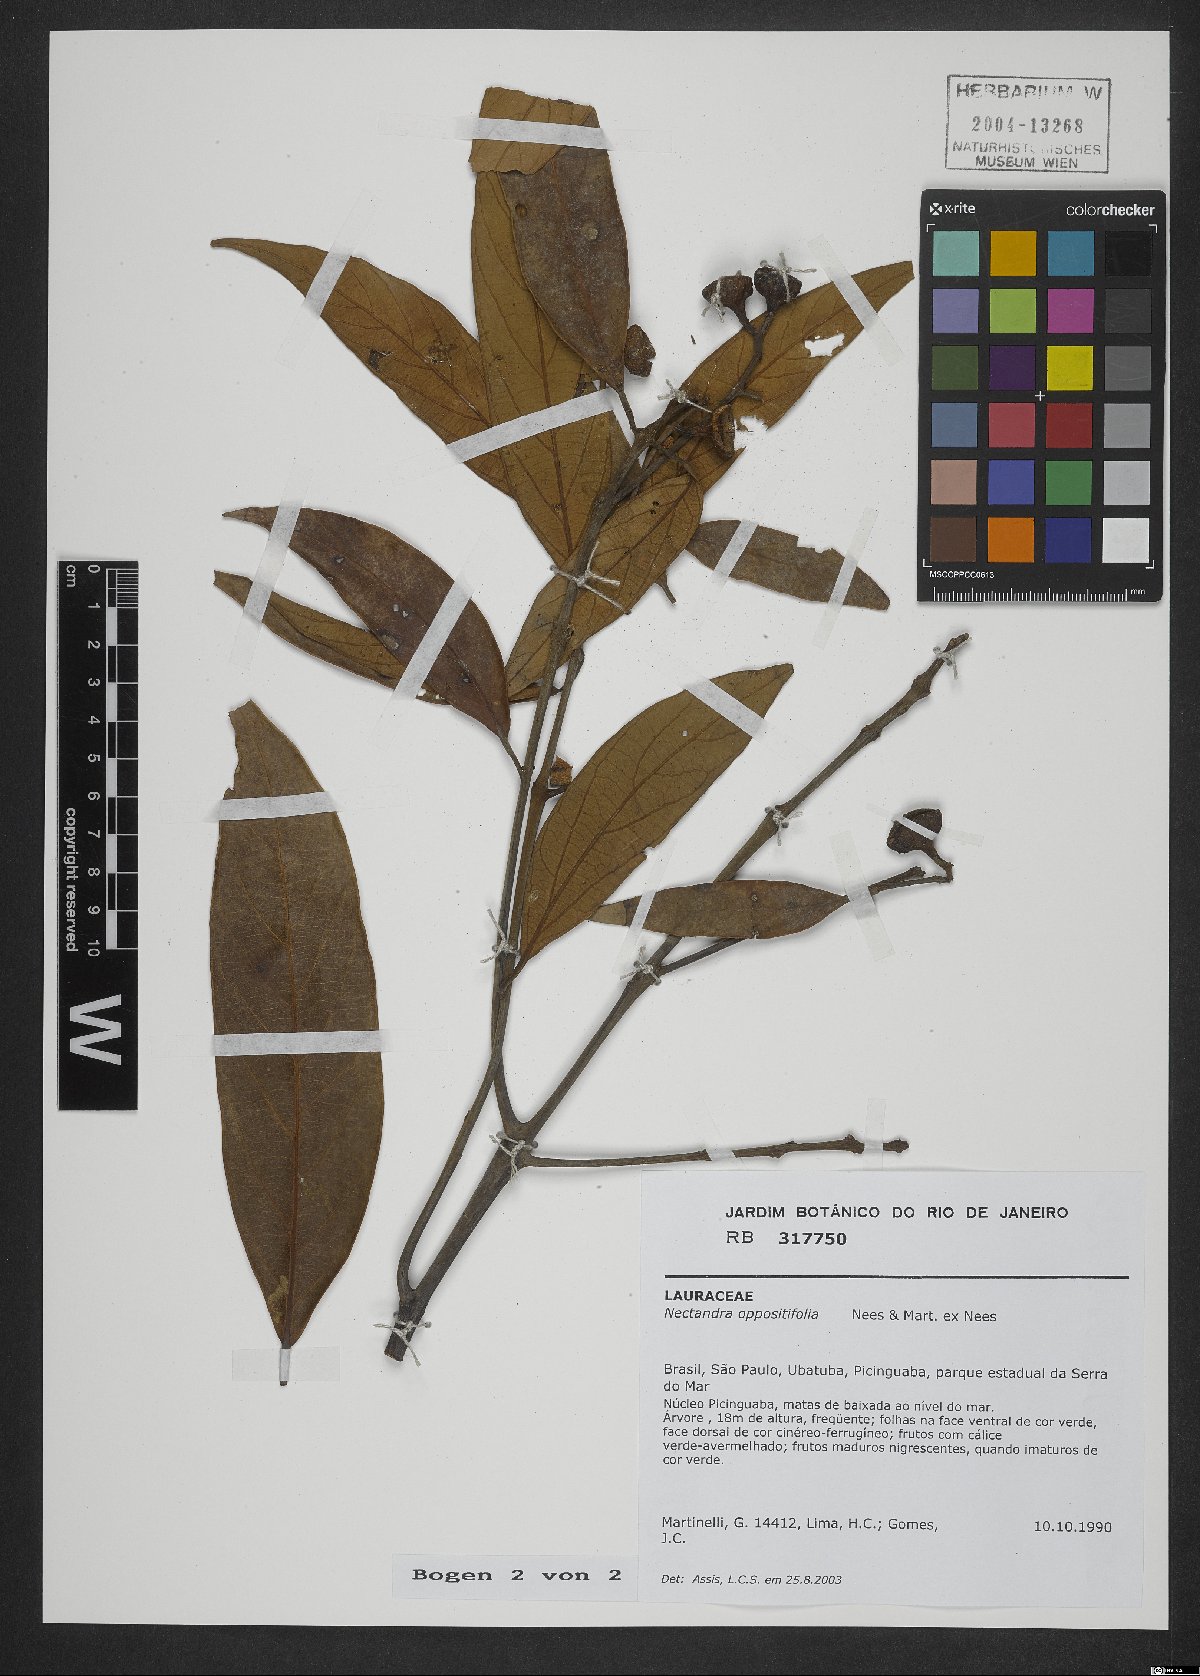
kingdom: Plantae
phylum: Tracheophyta
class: Magnoliopsida
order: Laurales
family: Lauraceae
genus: Nectandra
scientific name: Nectandra oppositifolia
